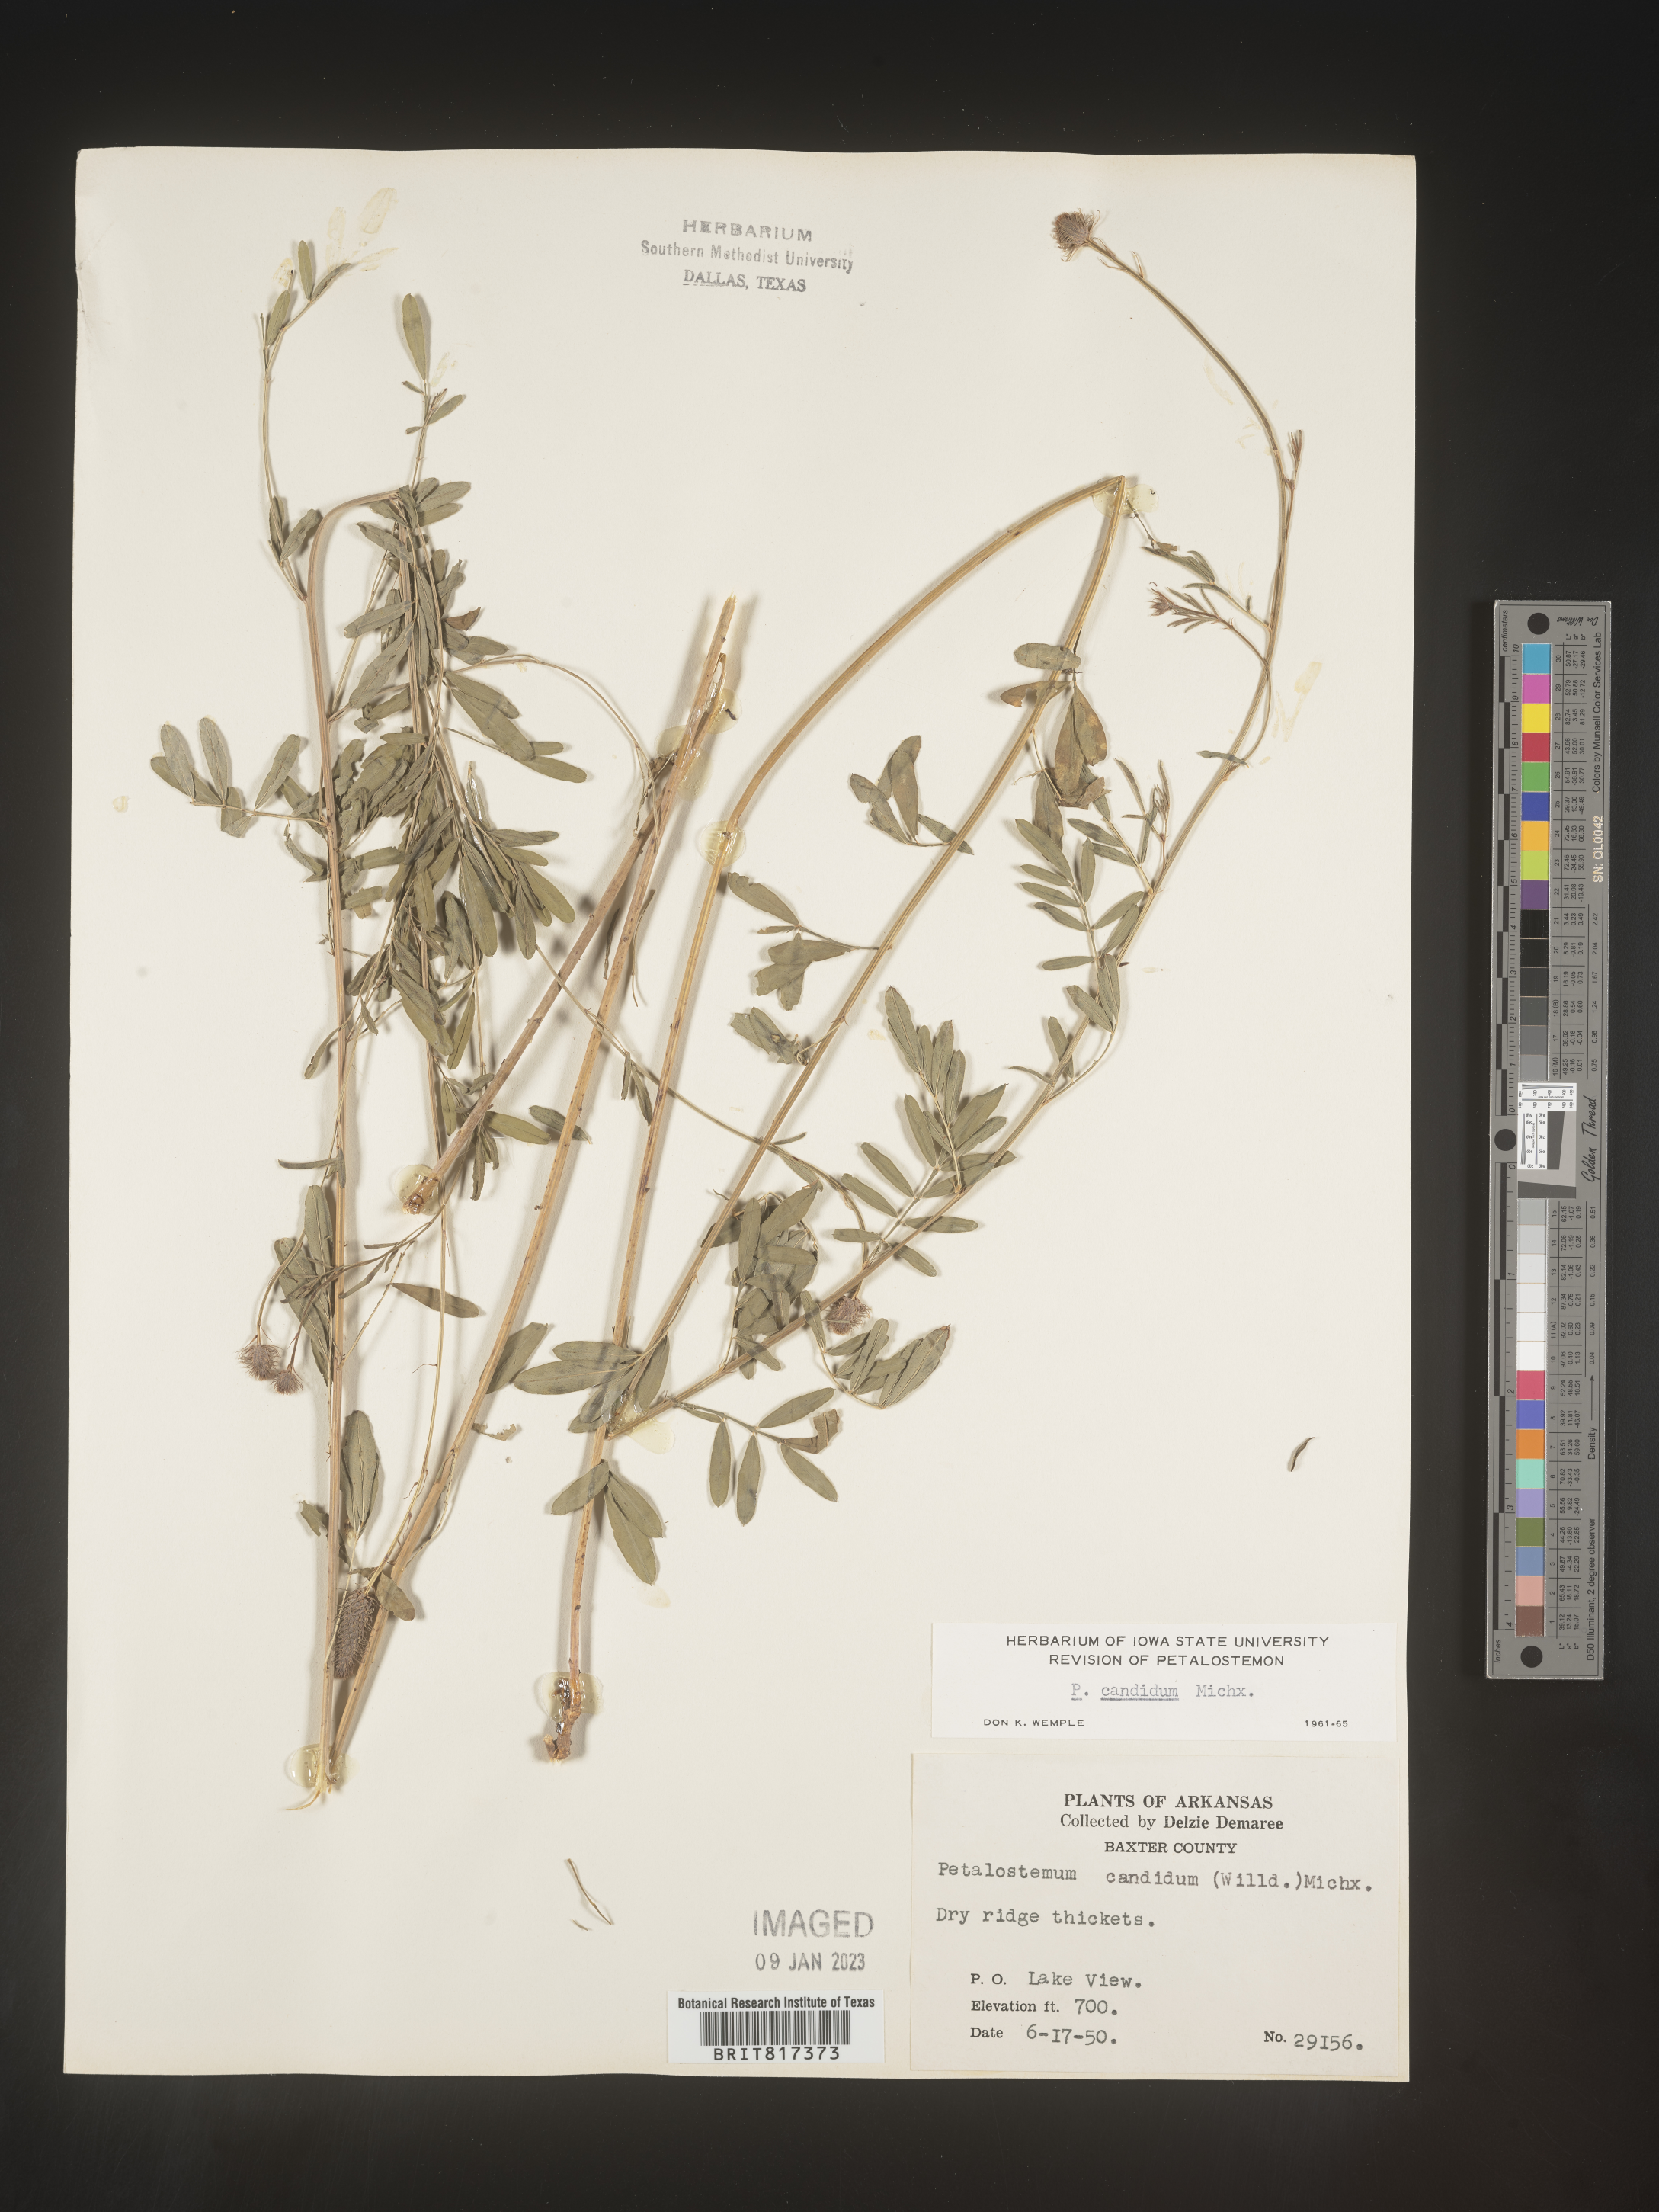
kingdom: Plantae
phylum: Tracheophyta
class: Magnoliopsida
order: Fabales
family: Fabaceae
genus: Dalea
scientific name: Dalea candida
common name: White prairie-clover
